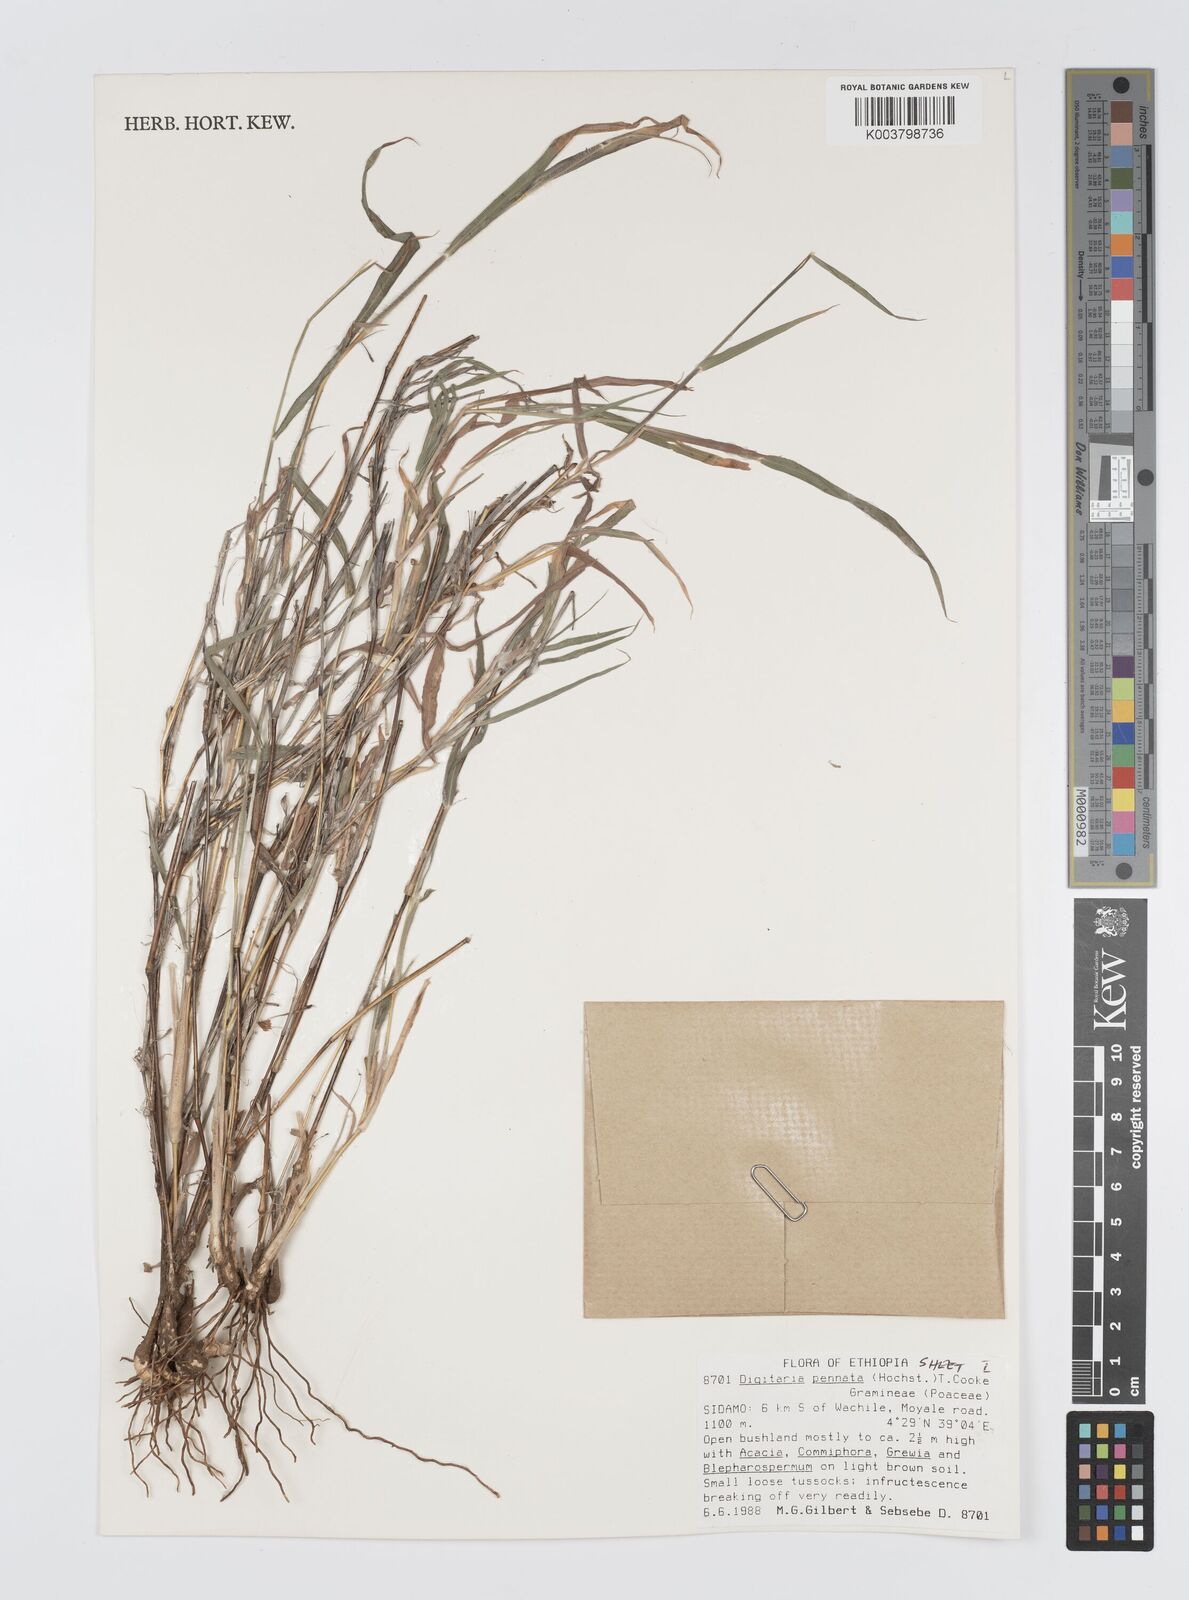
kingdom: Plantae
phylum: Tracheophyta
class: Liliopsida
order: Poales
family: Poaceae
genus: Digitaria
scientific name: Digitaria pennata
